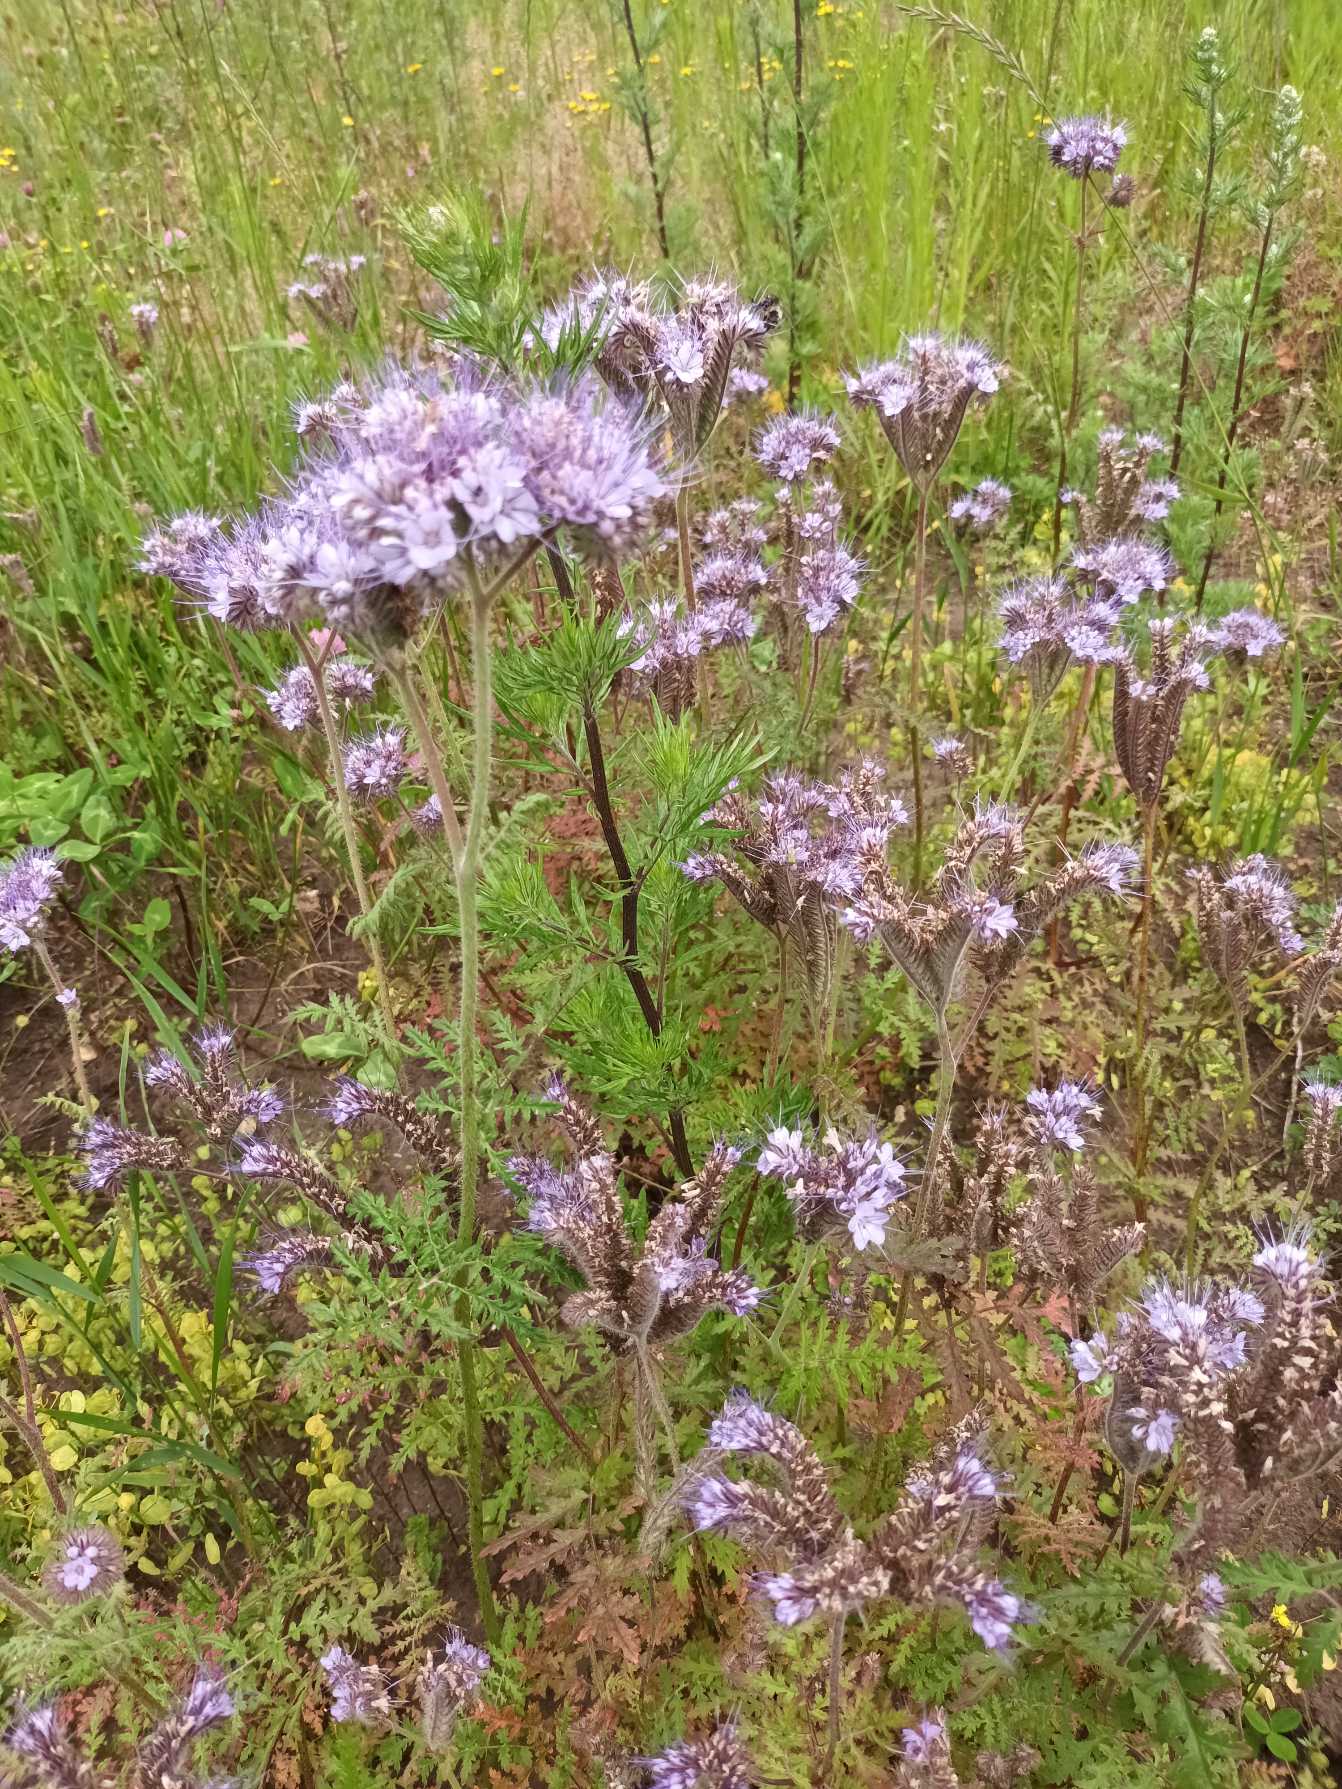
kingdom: Plantae
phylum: Tracheophyta
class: Magnoliopsida
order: Boraginales
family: Hydrophyllaceae
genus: Phacelia
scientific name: Phacelia tanacetifolia
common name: Honningurt
